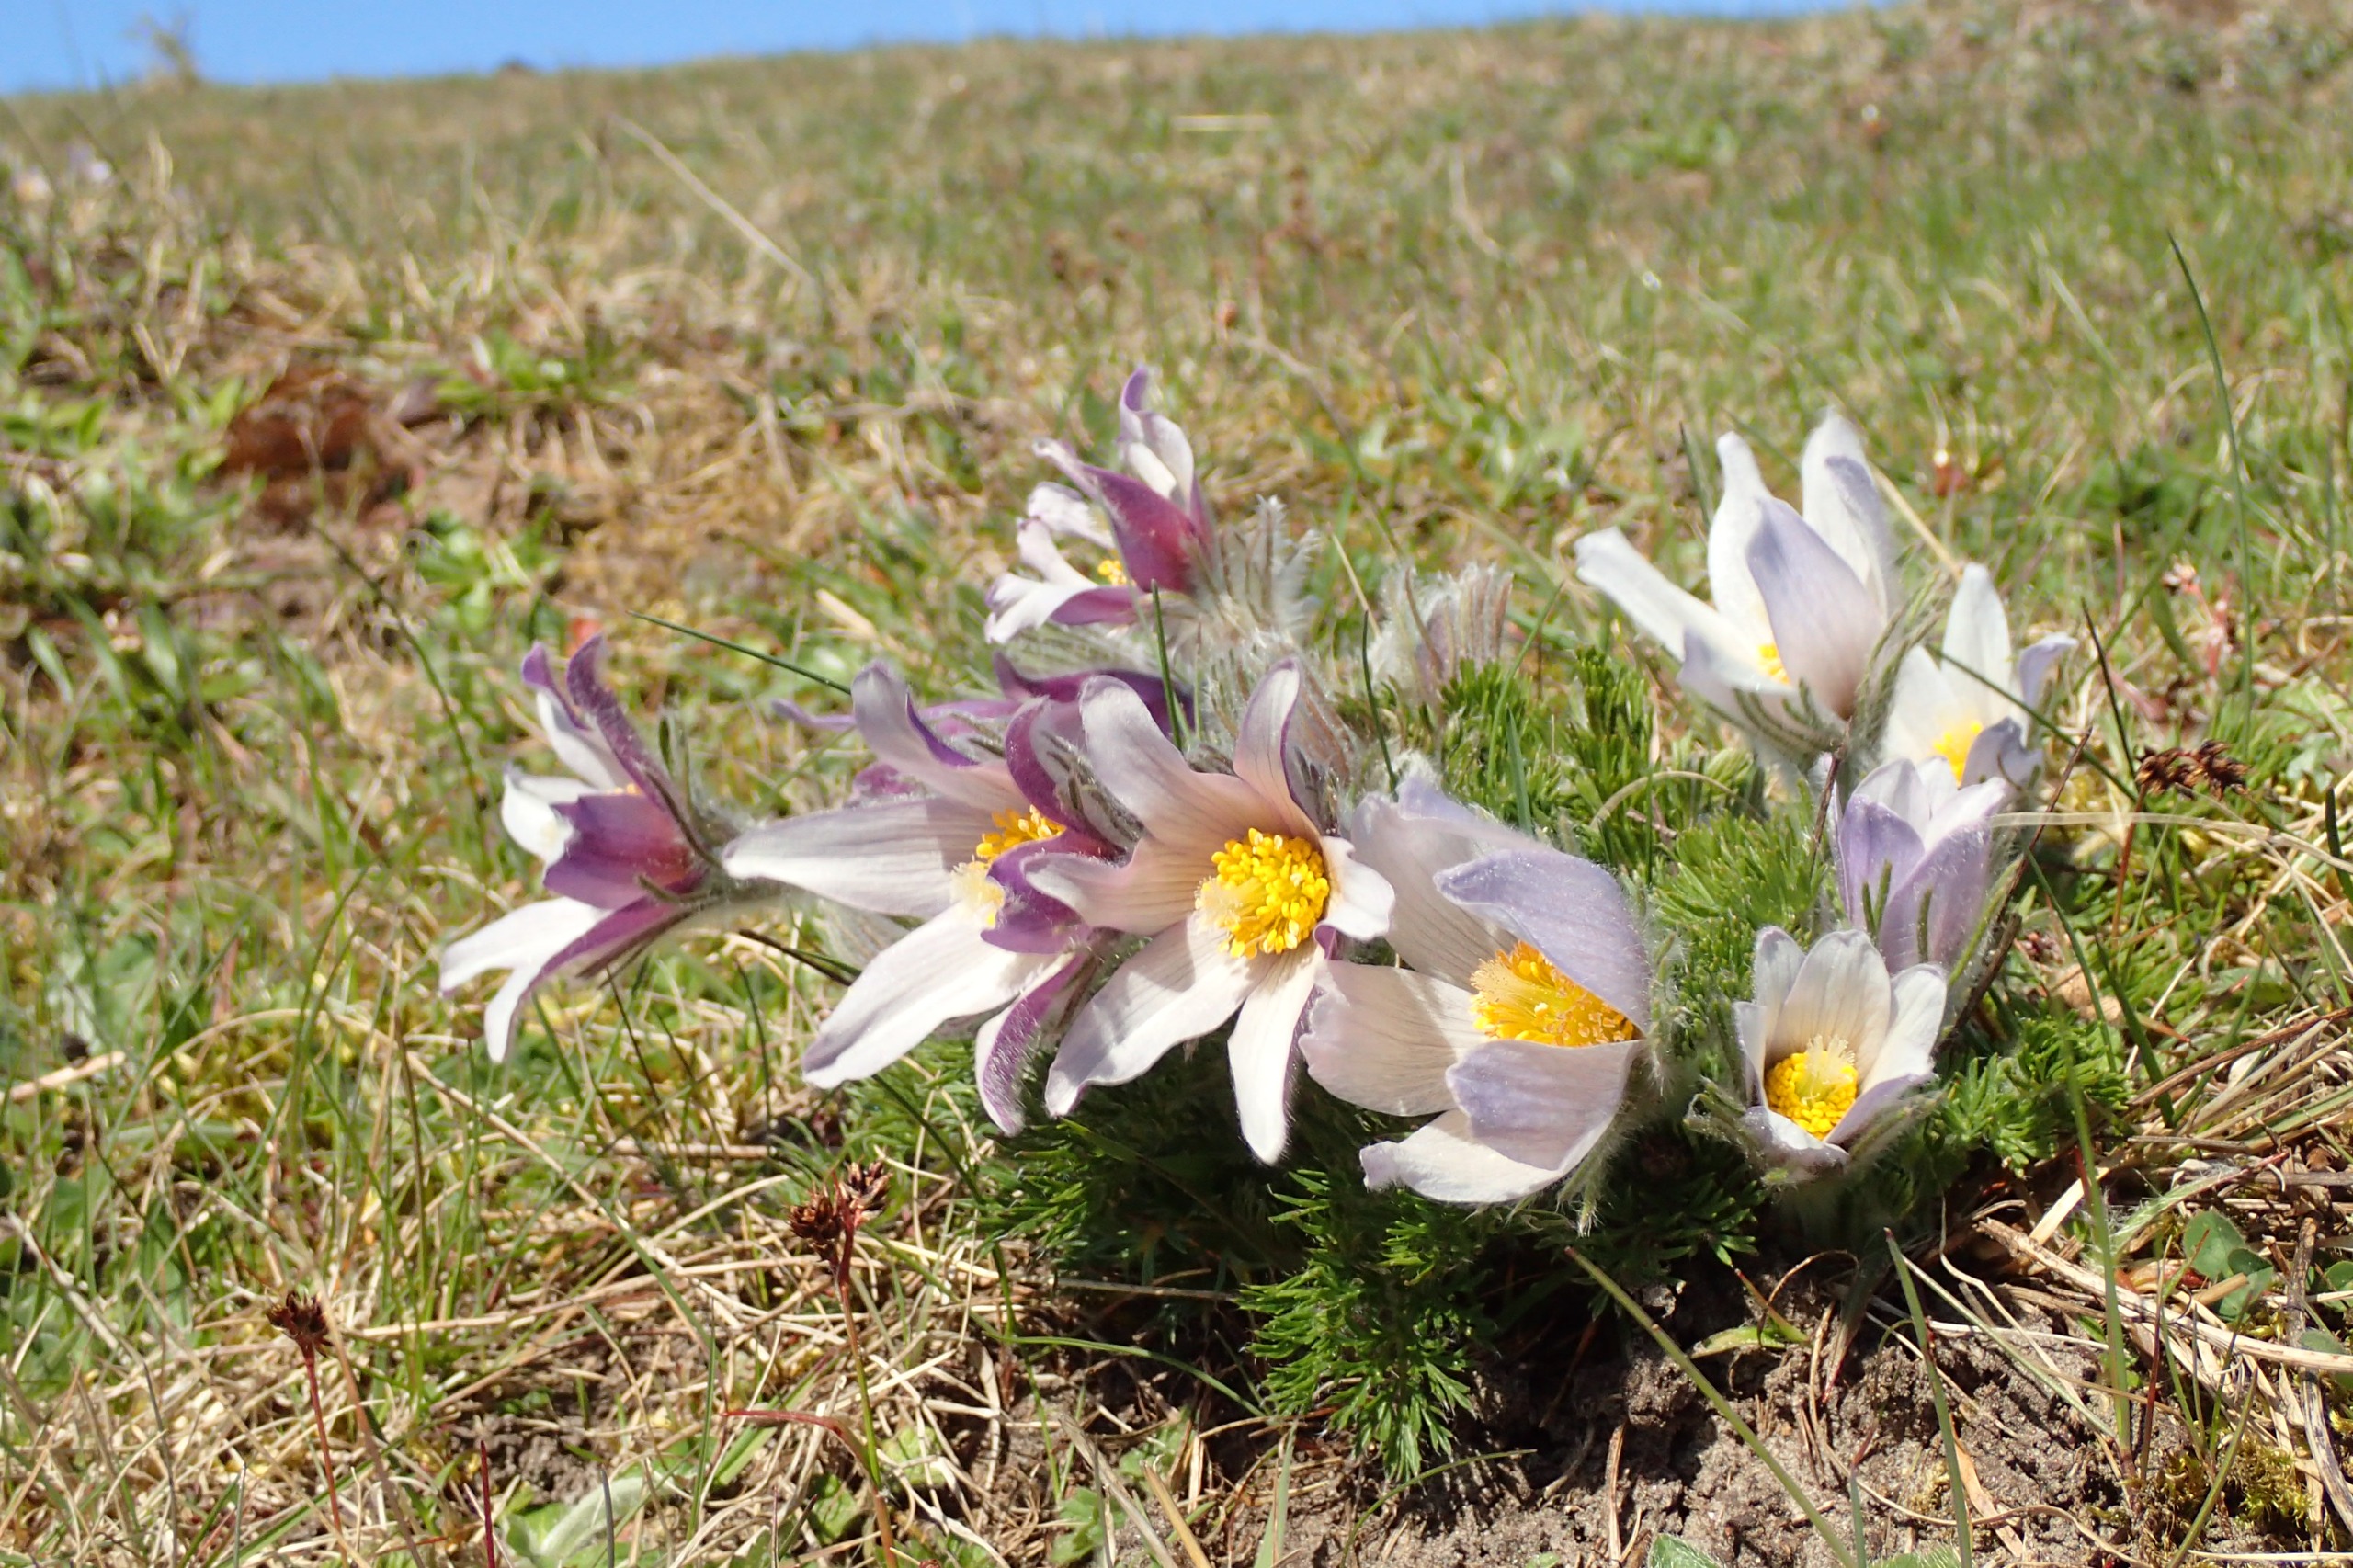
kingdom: Plantae
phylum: Tracheophyta
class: Magnoliopsida
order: Ranunculales
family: Ranunculaceae
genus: Pulsatilla
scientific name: Pulsatilla vulgaris
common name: Opret kobjælde
